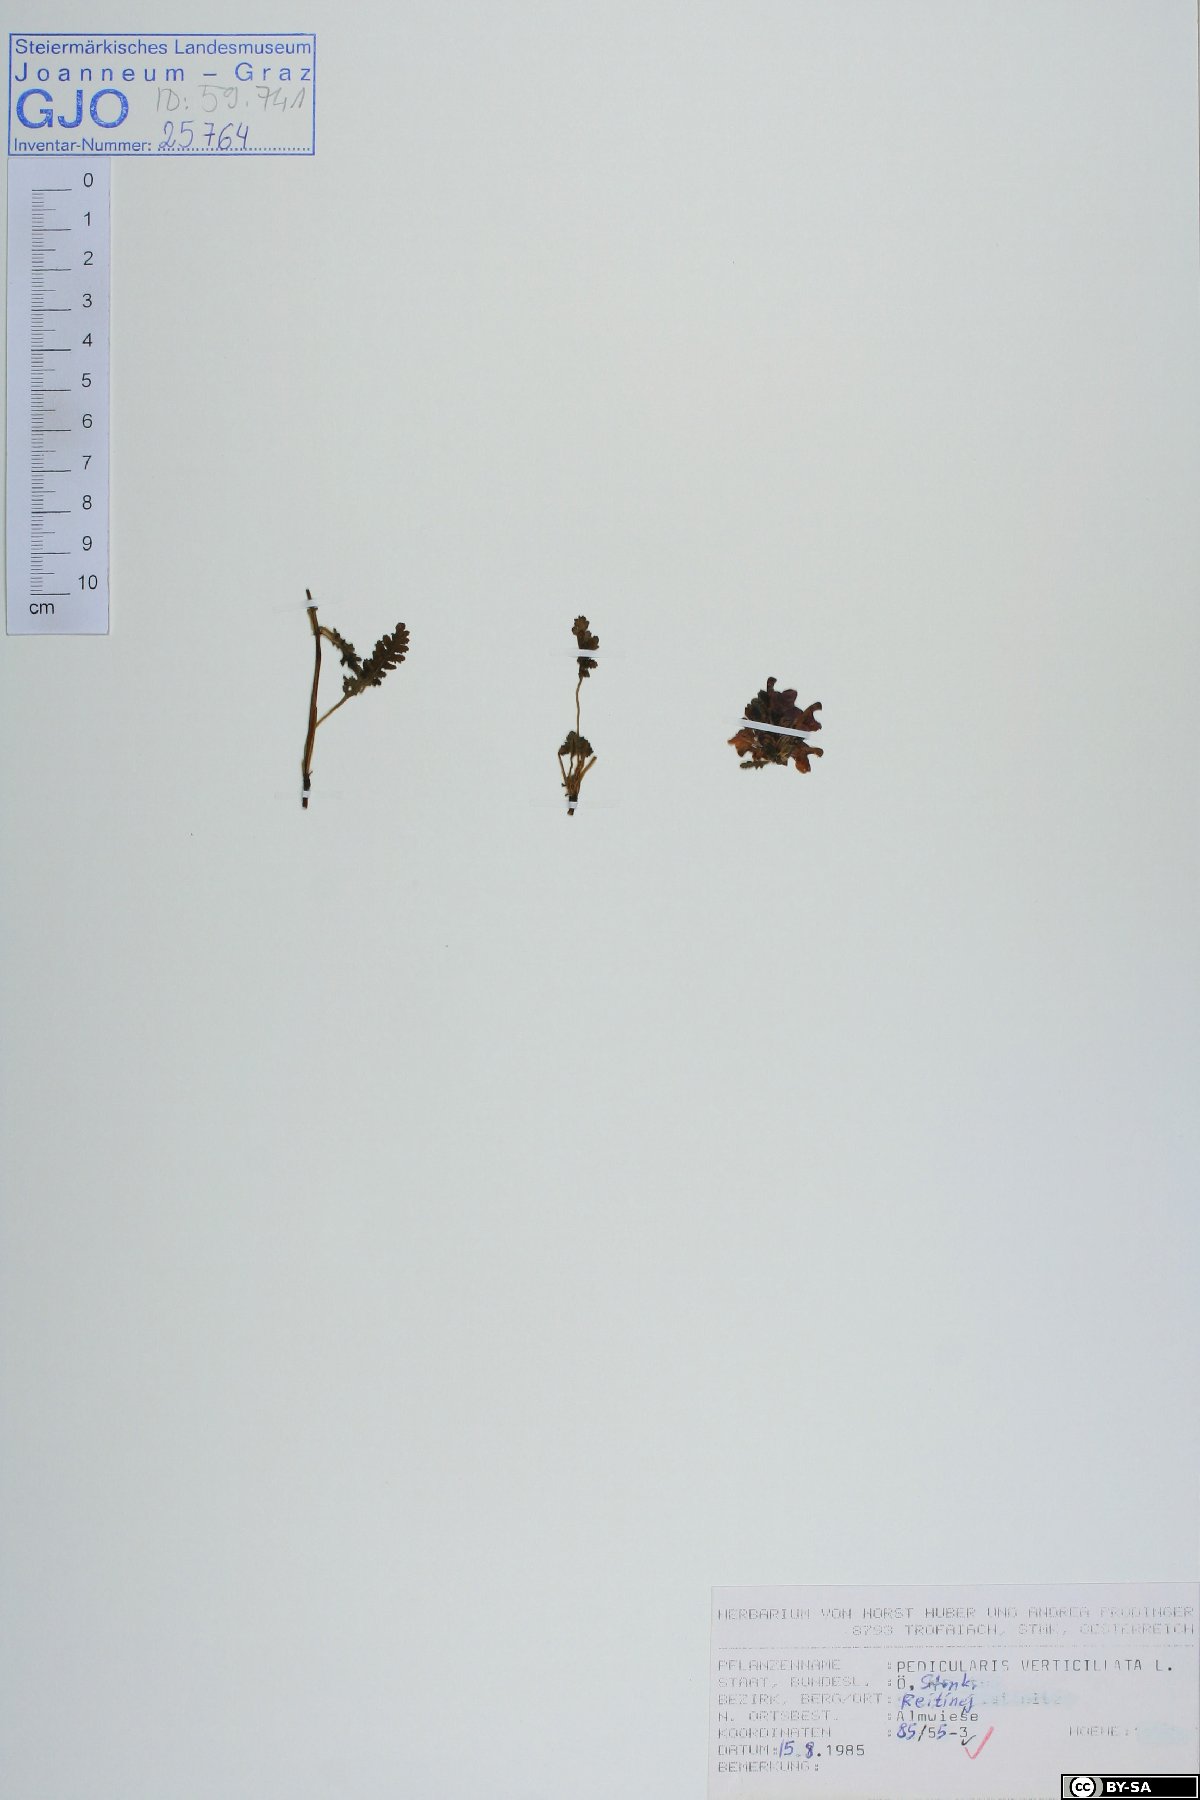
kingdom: Plantae
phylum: Tracheophyta
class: Magnoliopsida
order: Lamiales
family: Orobanchaceae
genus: Pedicularis
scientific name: Pedicularis verticillata
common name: Whorled lousewort
